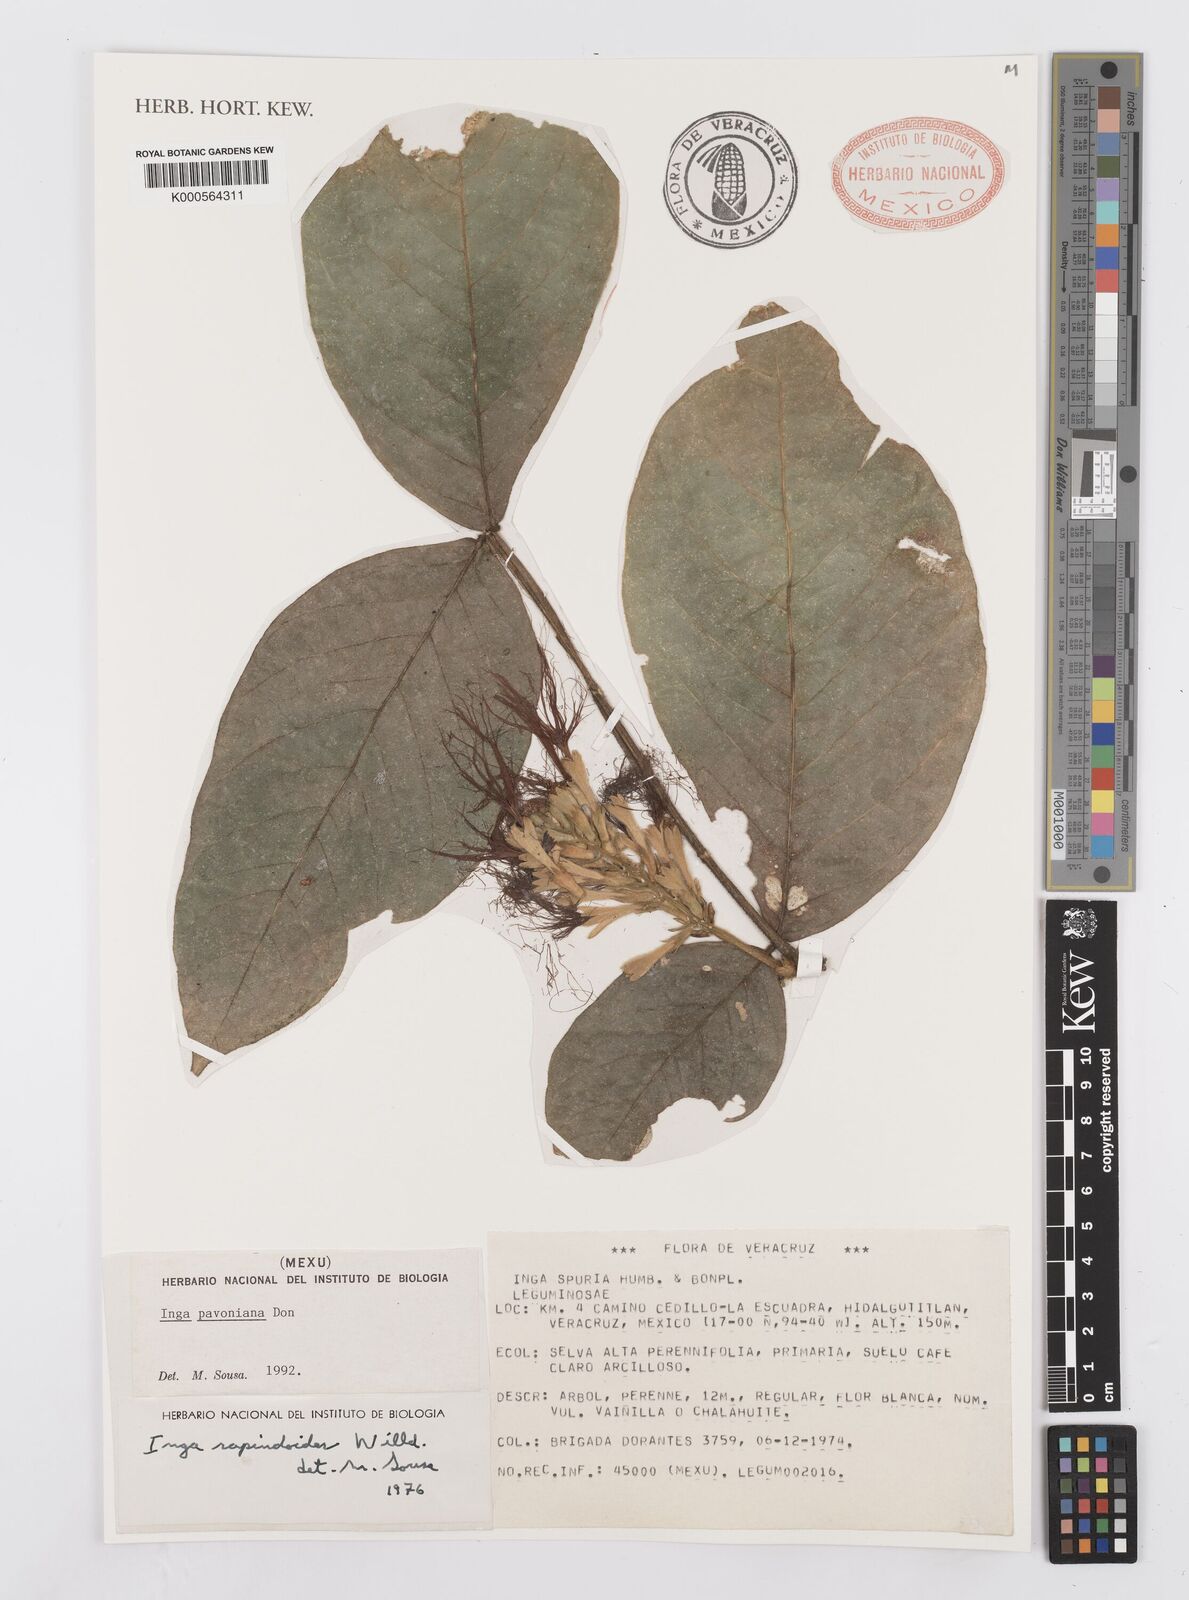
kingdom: Plantae
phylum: Tracheophyta
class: Magnoliopsida
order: Fabales
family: Fabaceae
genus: Inga
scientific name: Inga sapindoides
